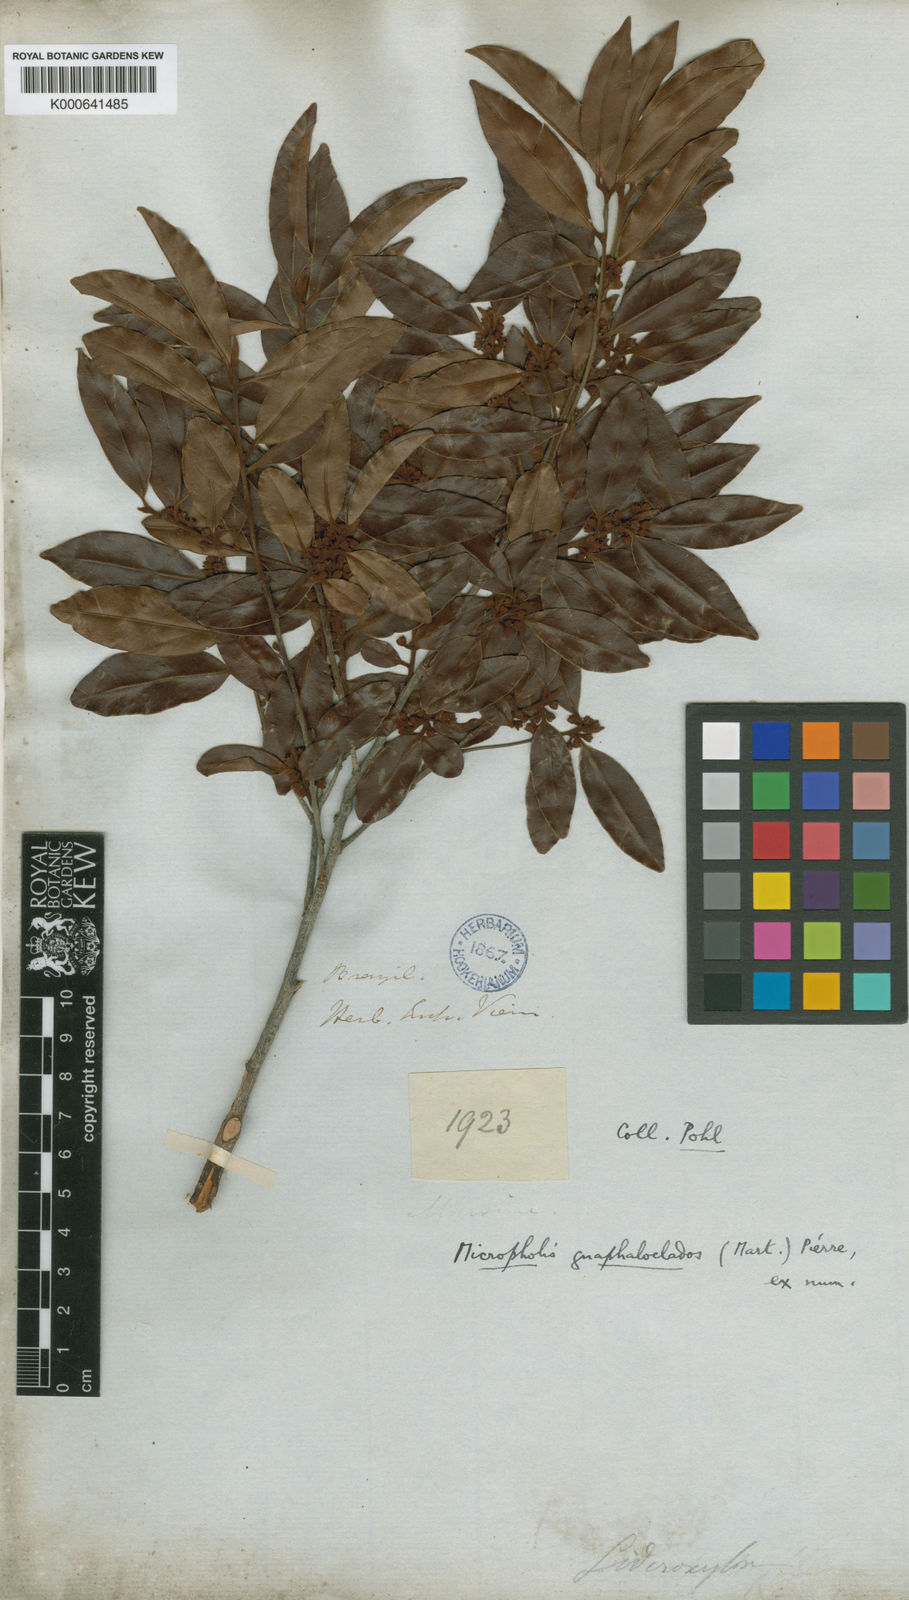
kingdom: Plantae
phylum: Tracheophyta
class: Magnoliopsida
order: Ericales
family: Sapotaceae
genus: Micropholis
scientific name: Micropholis gnaphaloclados
